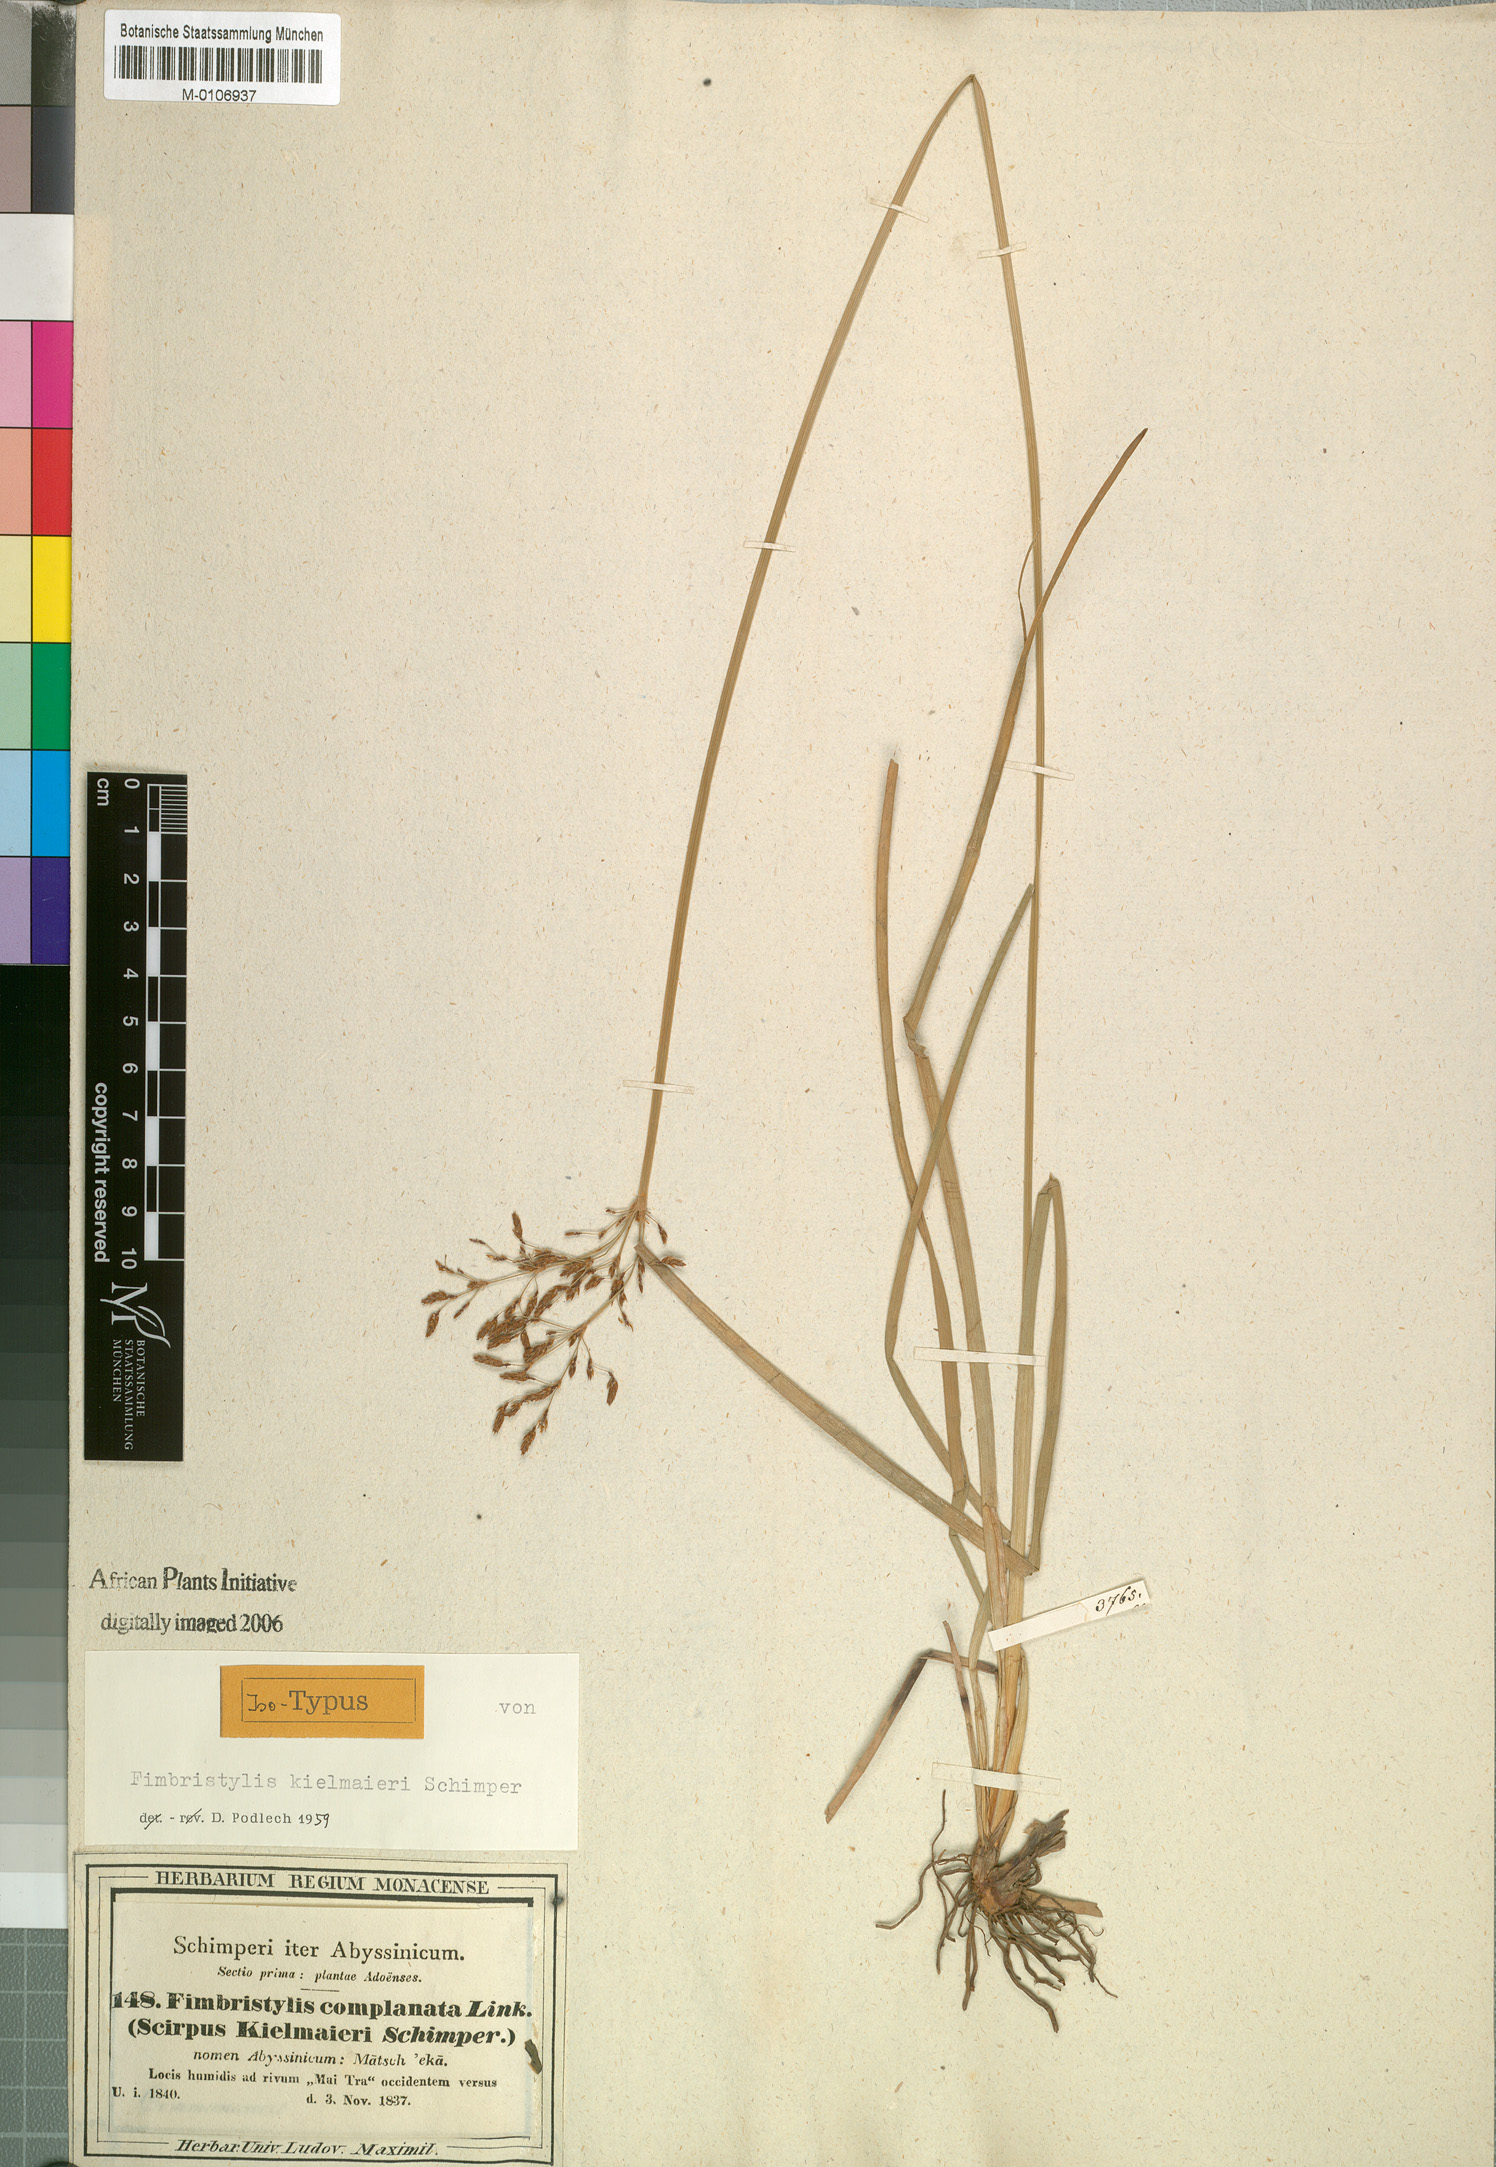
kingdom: Plantae
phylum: Tracheophyta
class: Liliopsida
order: Poales
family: Cyperaceae
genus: Fimbristylis
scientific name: Fimbristylis complanata
